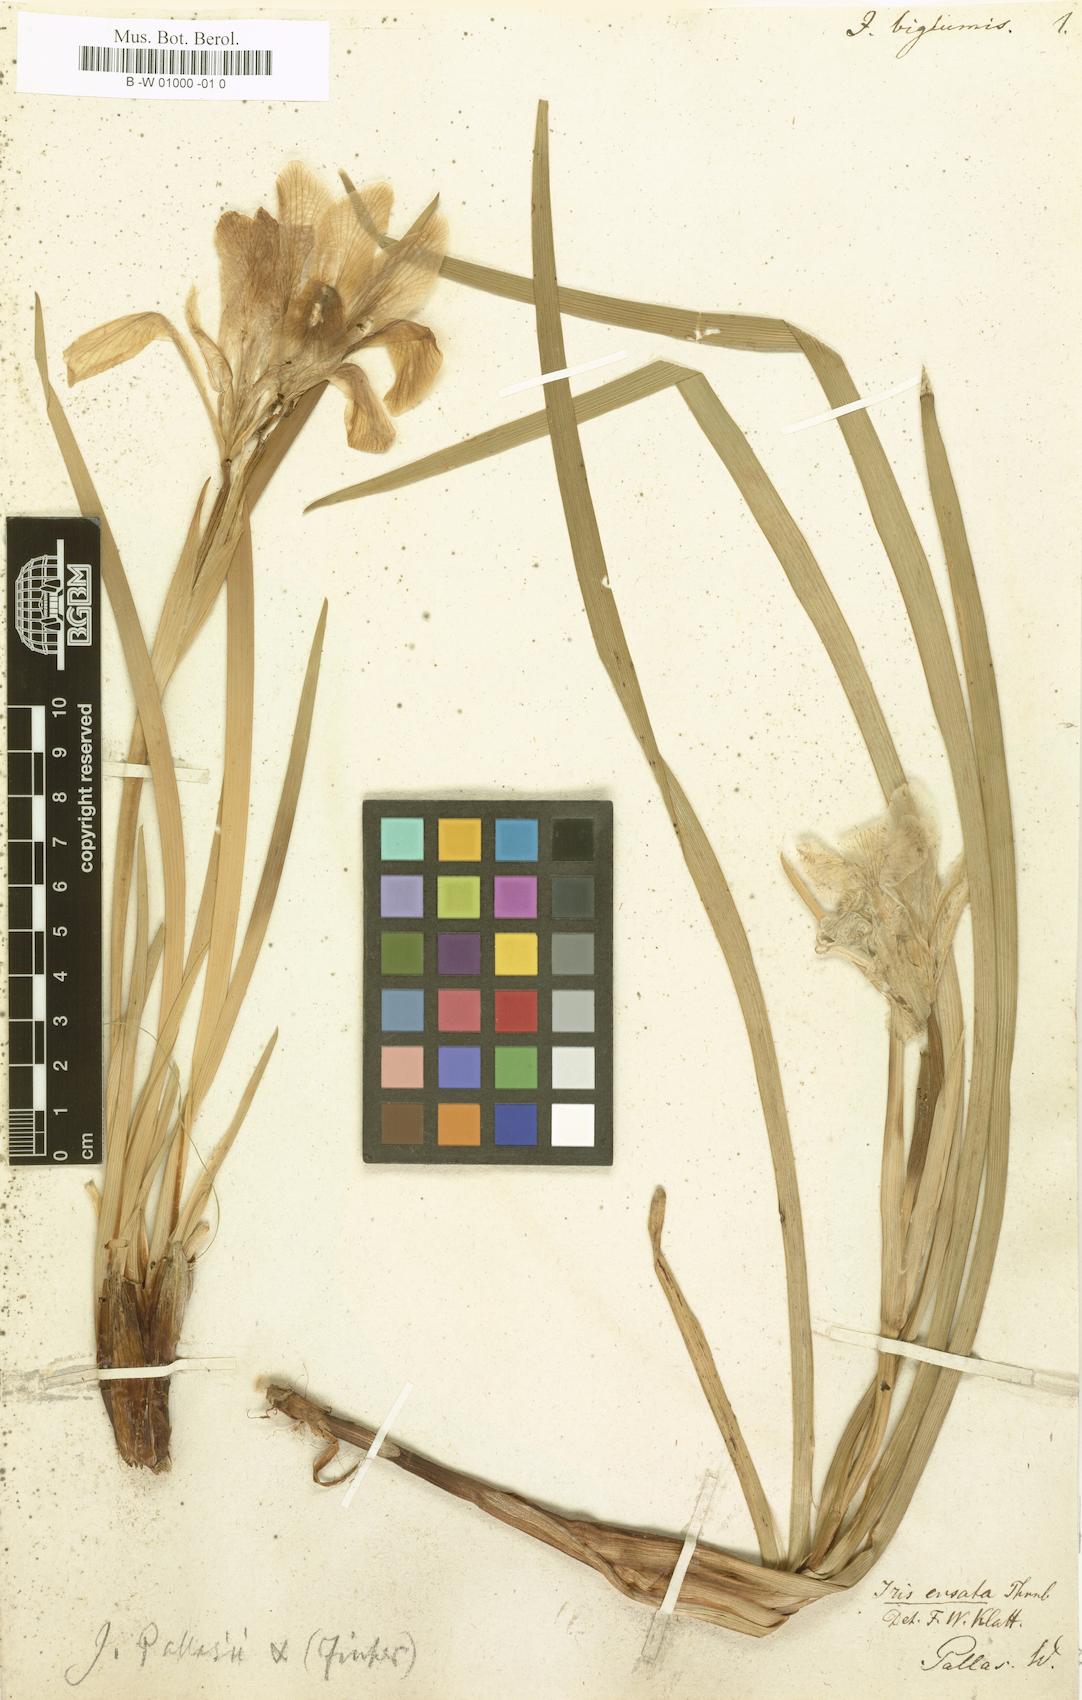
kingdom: Plantae
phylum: Tracheophyta
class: Liliopsida
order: Asparagales
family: Iridaceae
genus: Iris
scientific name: Iris lactea
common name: White-flower chinese iris
